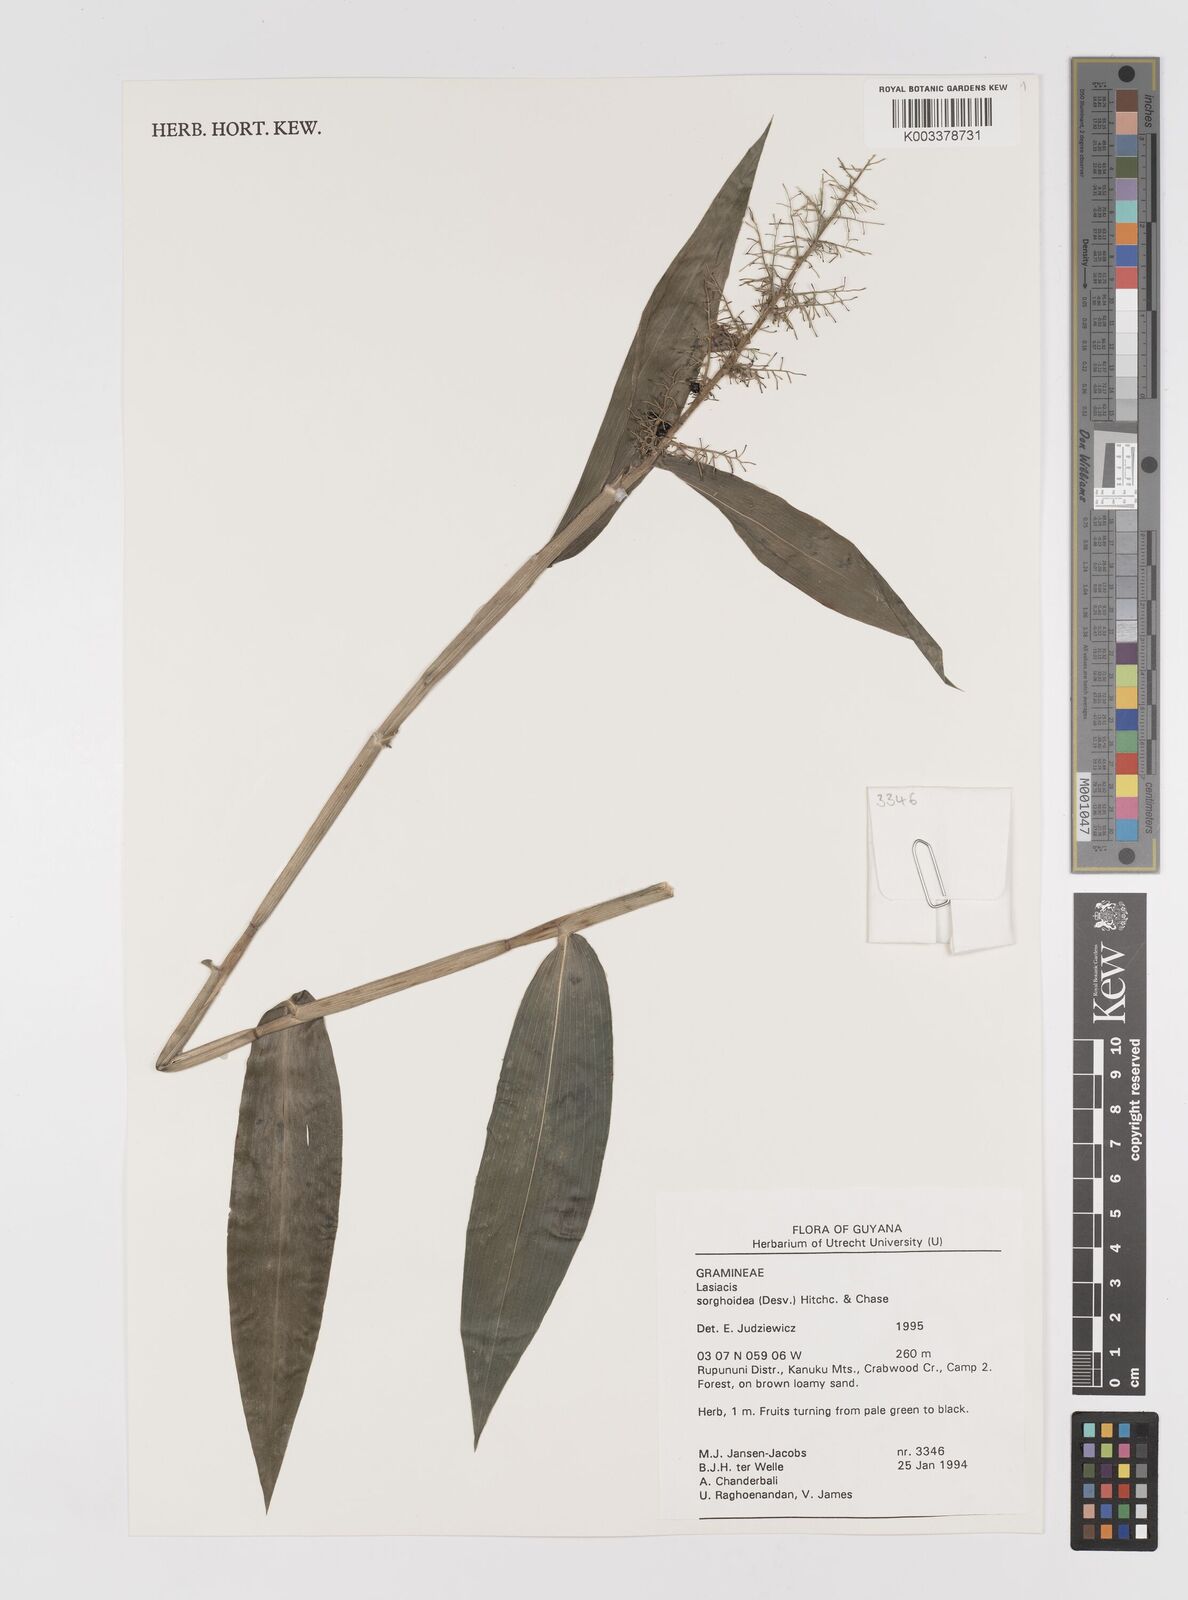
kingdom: Plantae
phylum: Tracheophyta
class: Liliopsida
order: Poales
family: Poaceae
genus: Lasiacis
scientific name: Lasiacis maculata
